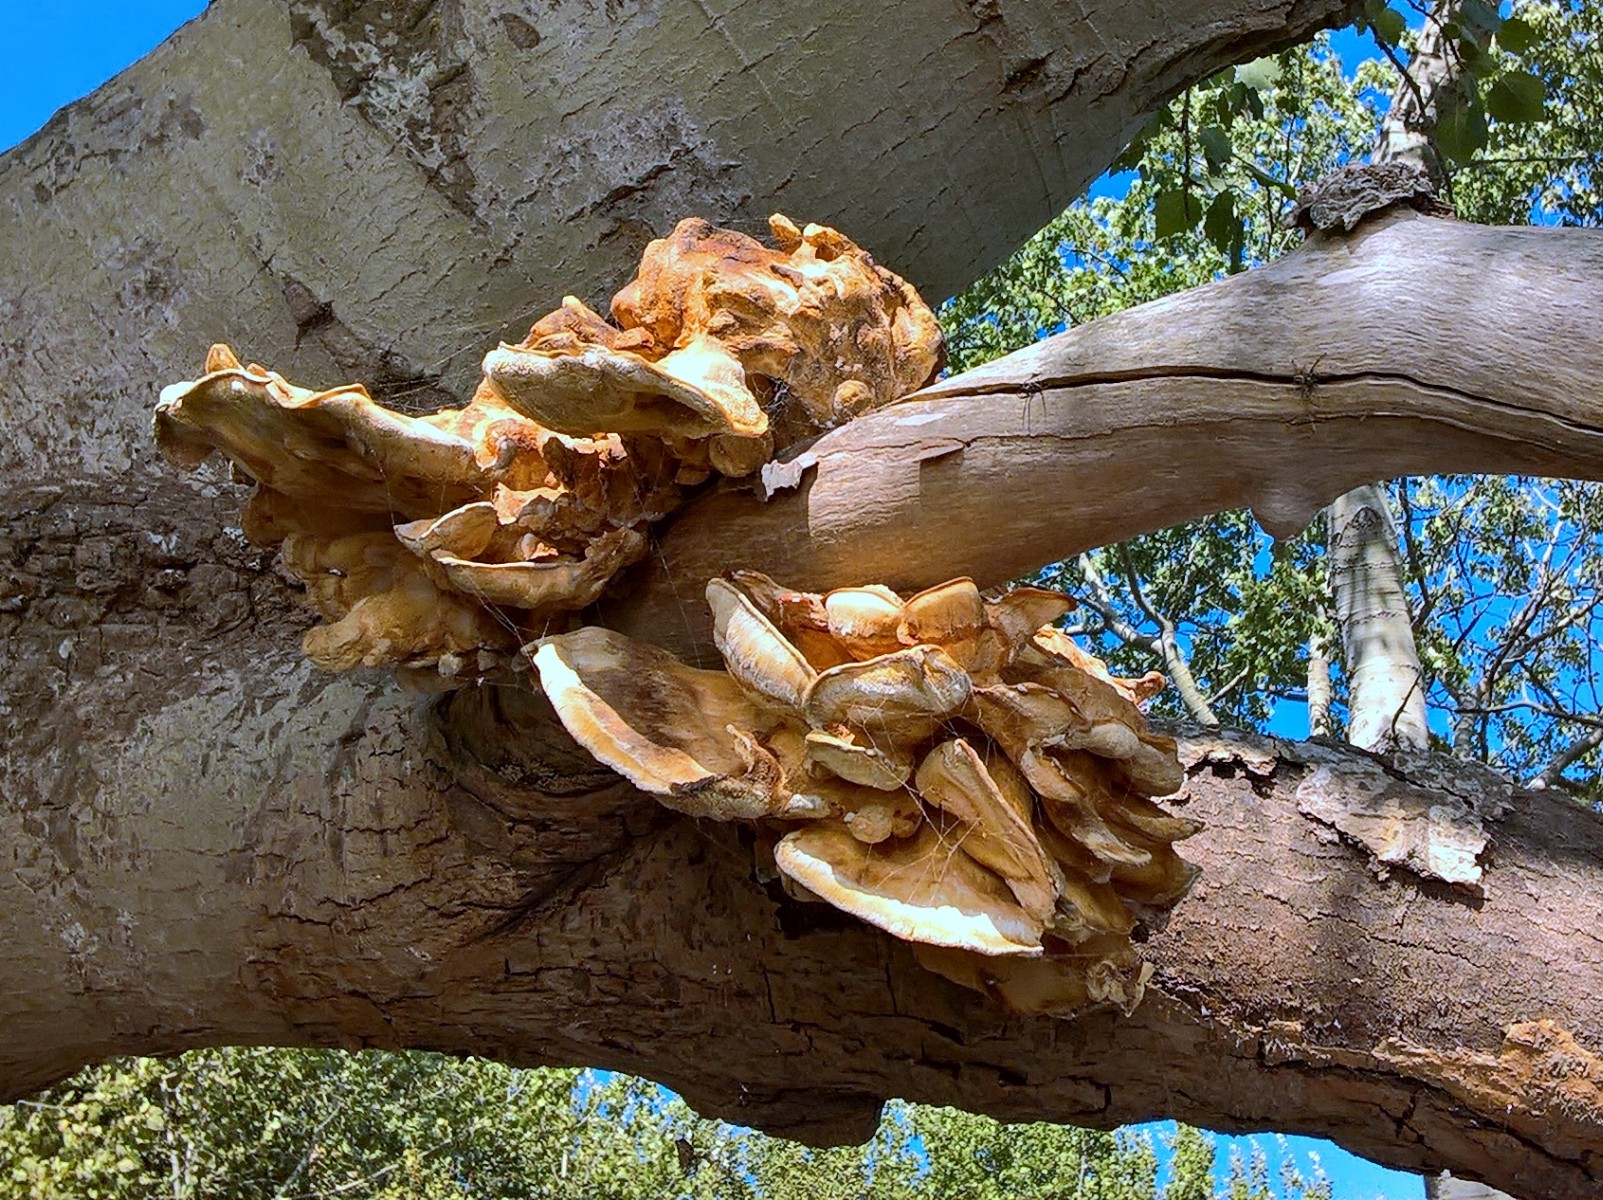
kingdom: Fungi
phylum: Basidiomycota
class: Agaricomycetes
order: Polyporales
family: Laetiporaceae
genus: Laetiporus
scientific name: Laetiporus sulphureus
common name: svovlporesvamp
